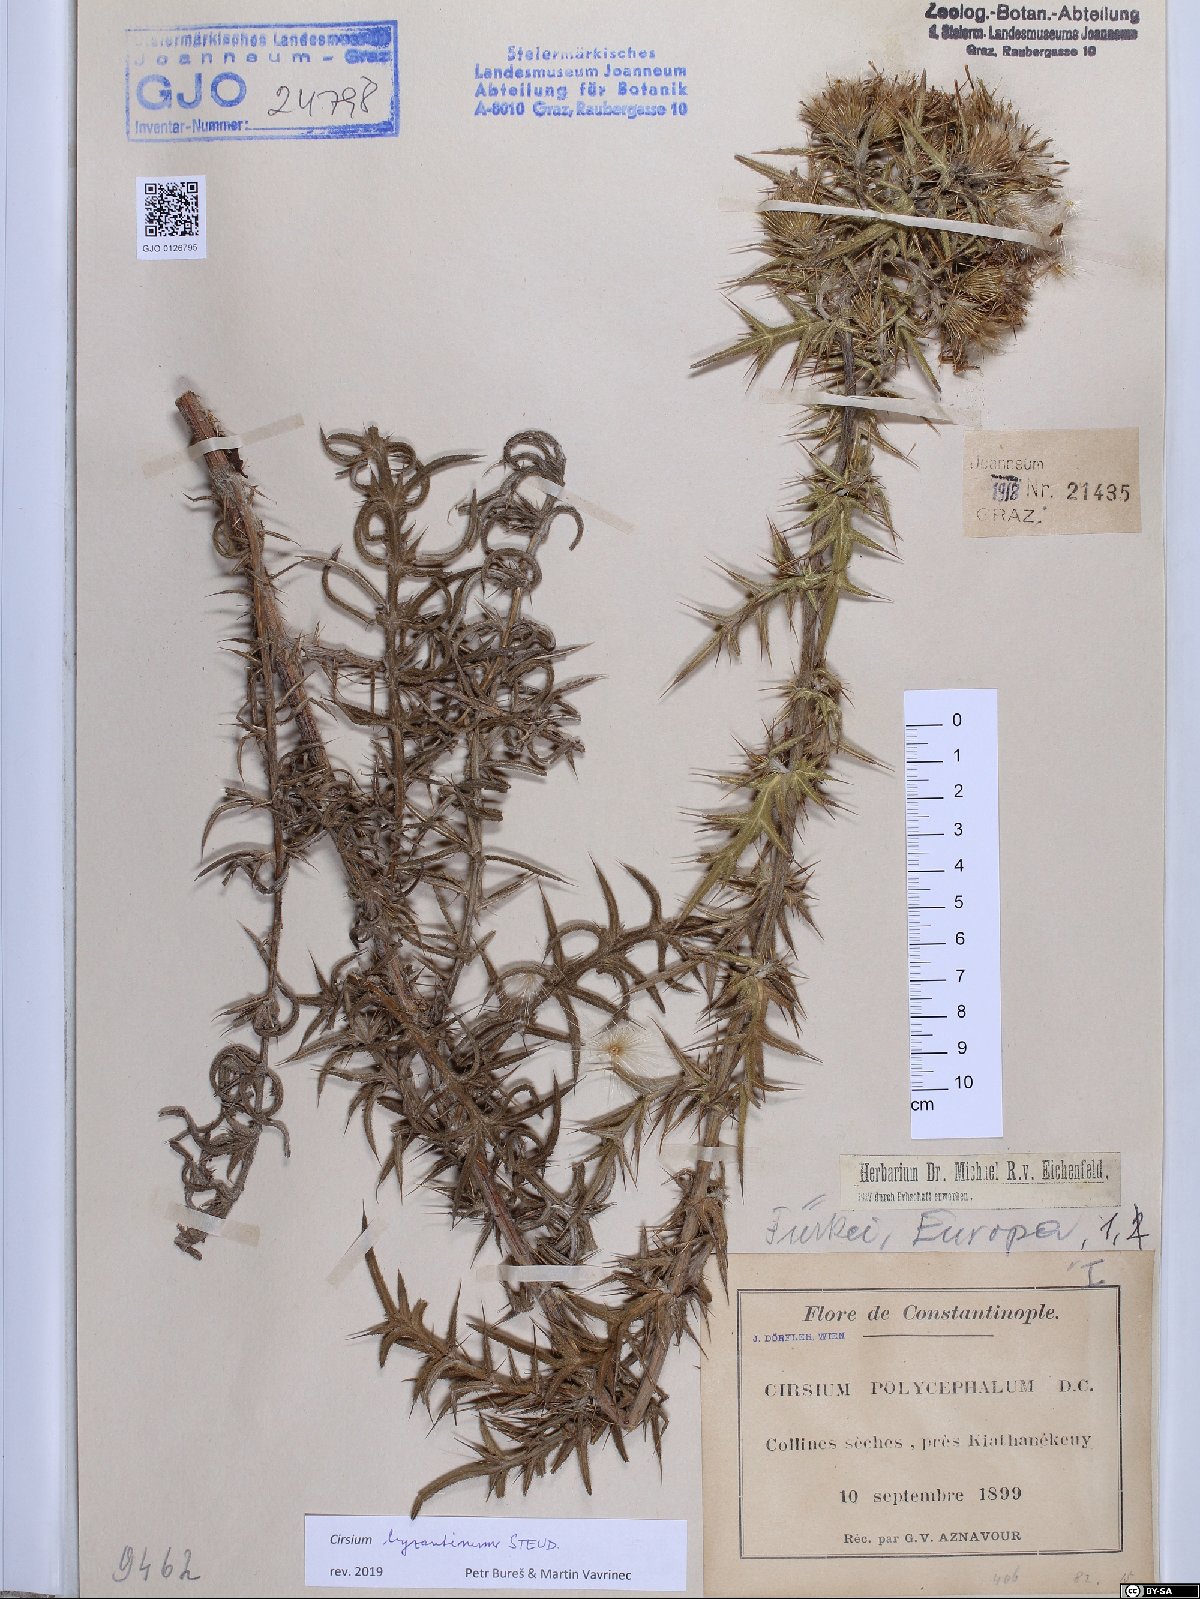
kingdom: Plantae
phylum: Tracheophyta
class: Magnoliopsida
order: Asterales
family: Asteraceae
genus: Lophiolepis
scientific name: Lophiolepis byzantina
